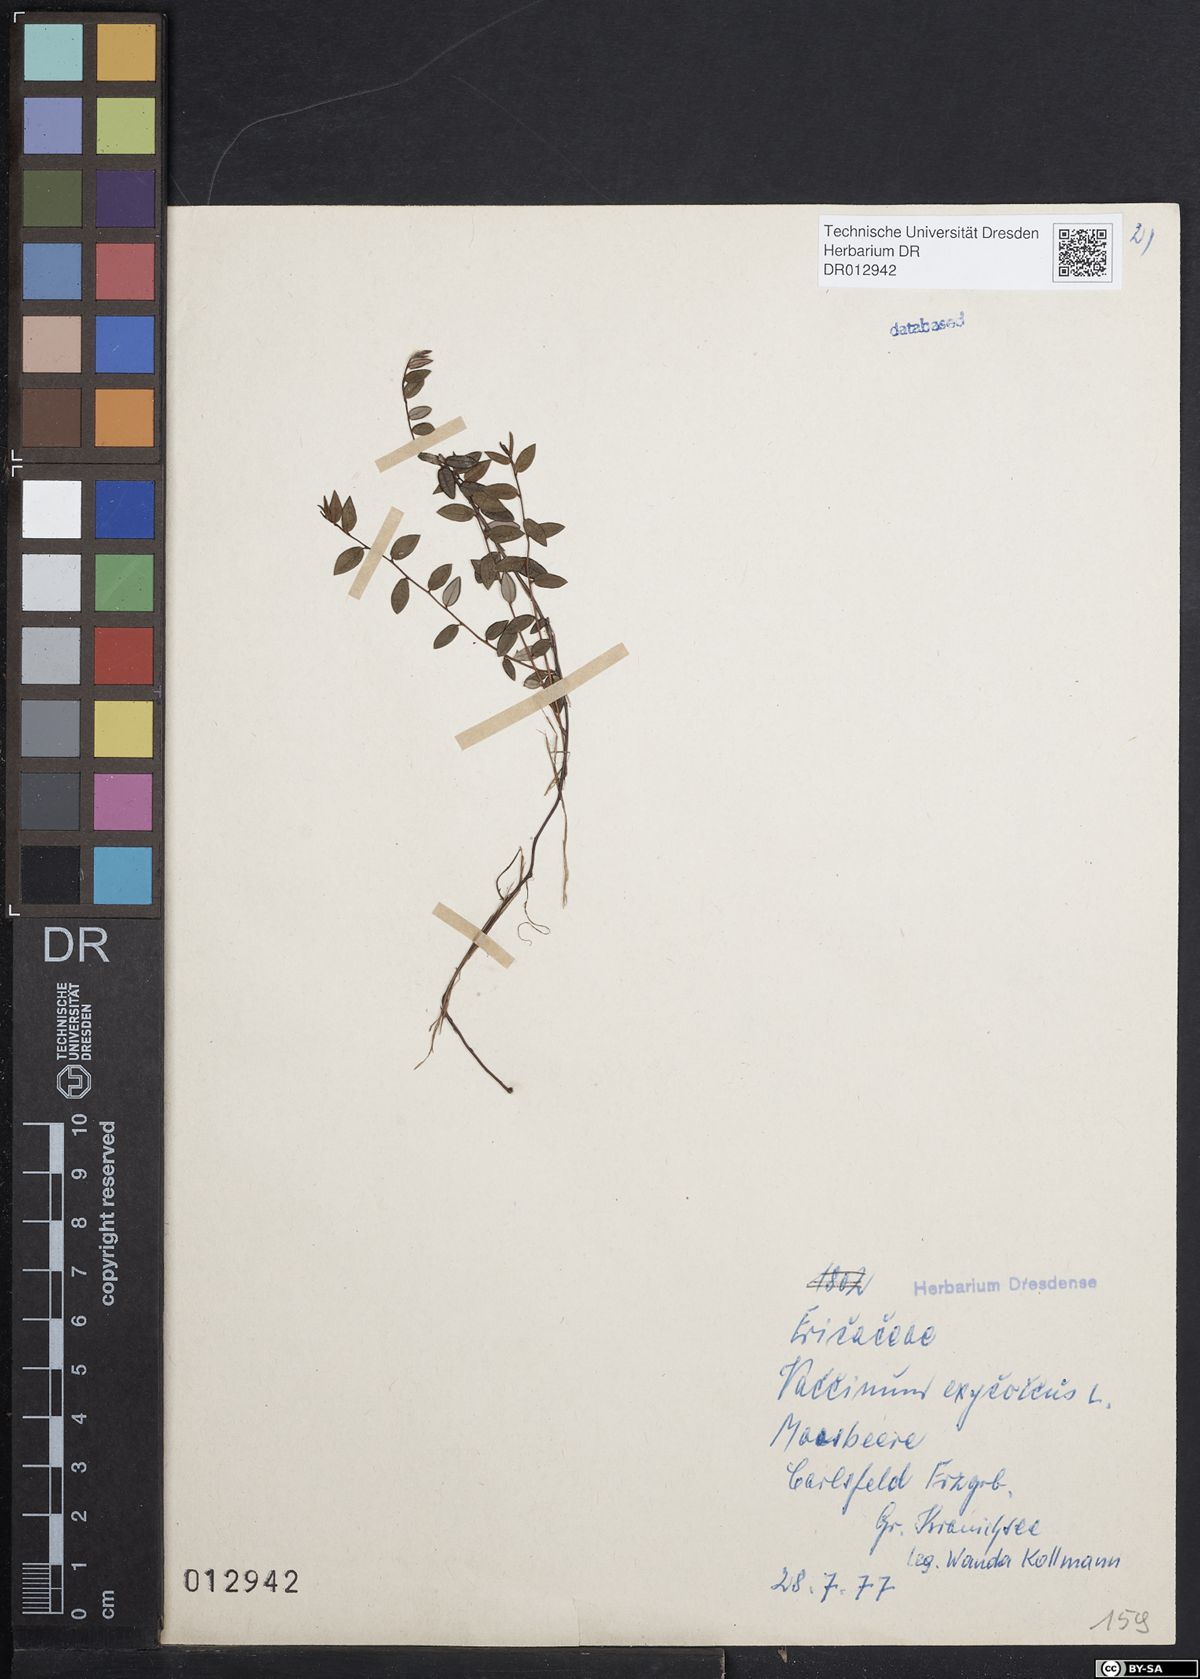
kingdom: Plantae
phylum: Tracheophyta
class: Magnoliopsida
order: Ericales
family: Ericaceae
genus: Vaccinium
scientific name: Vaccinium oxycoccos
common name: Cranberry
